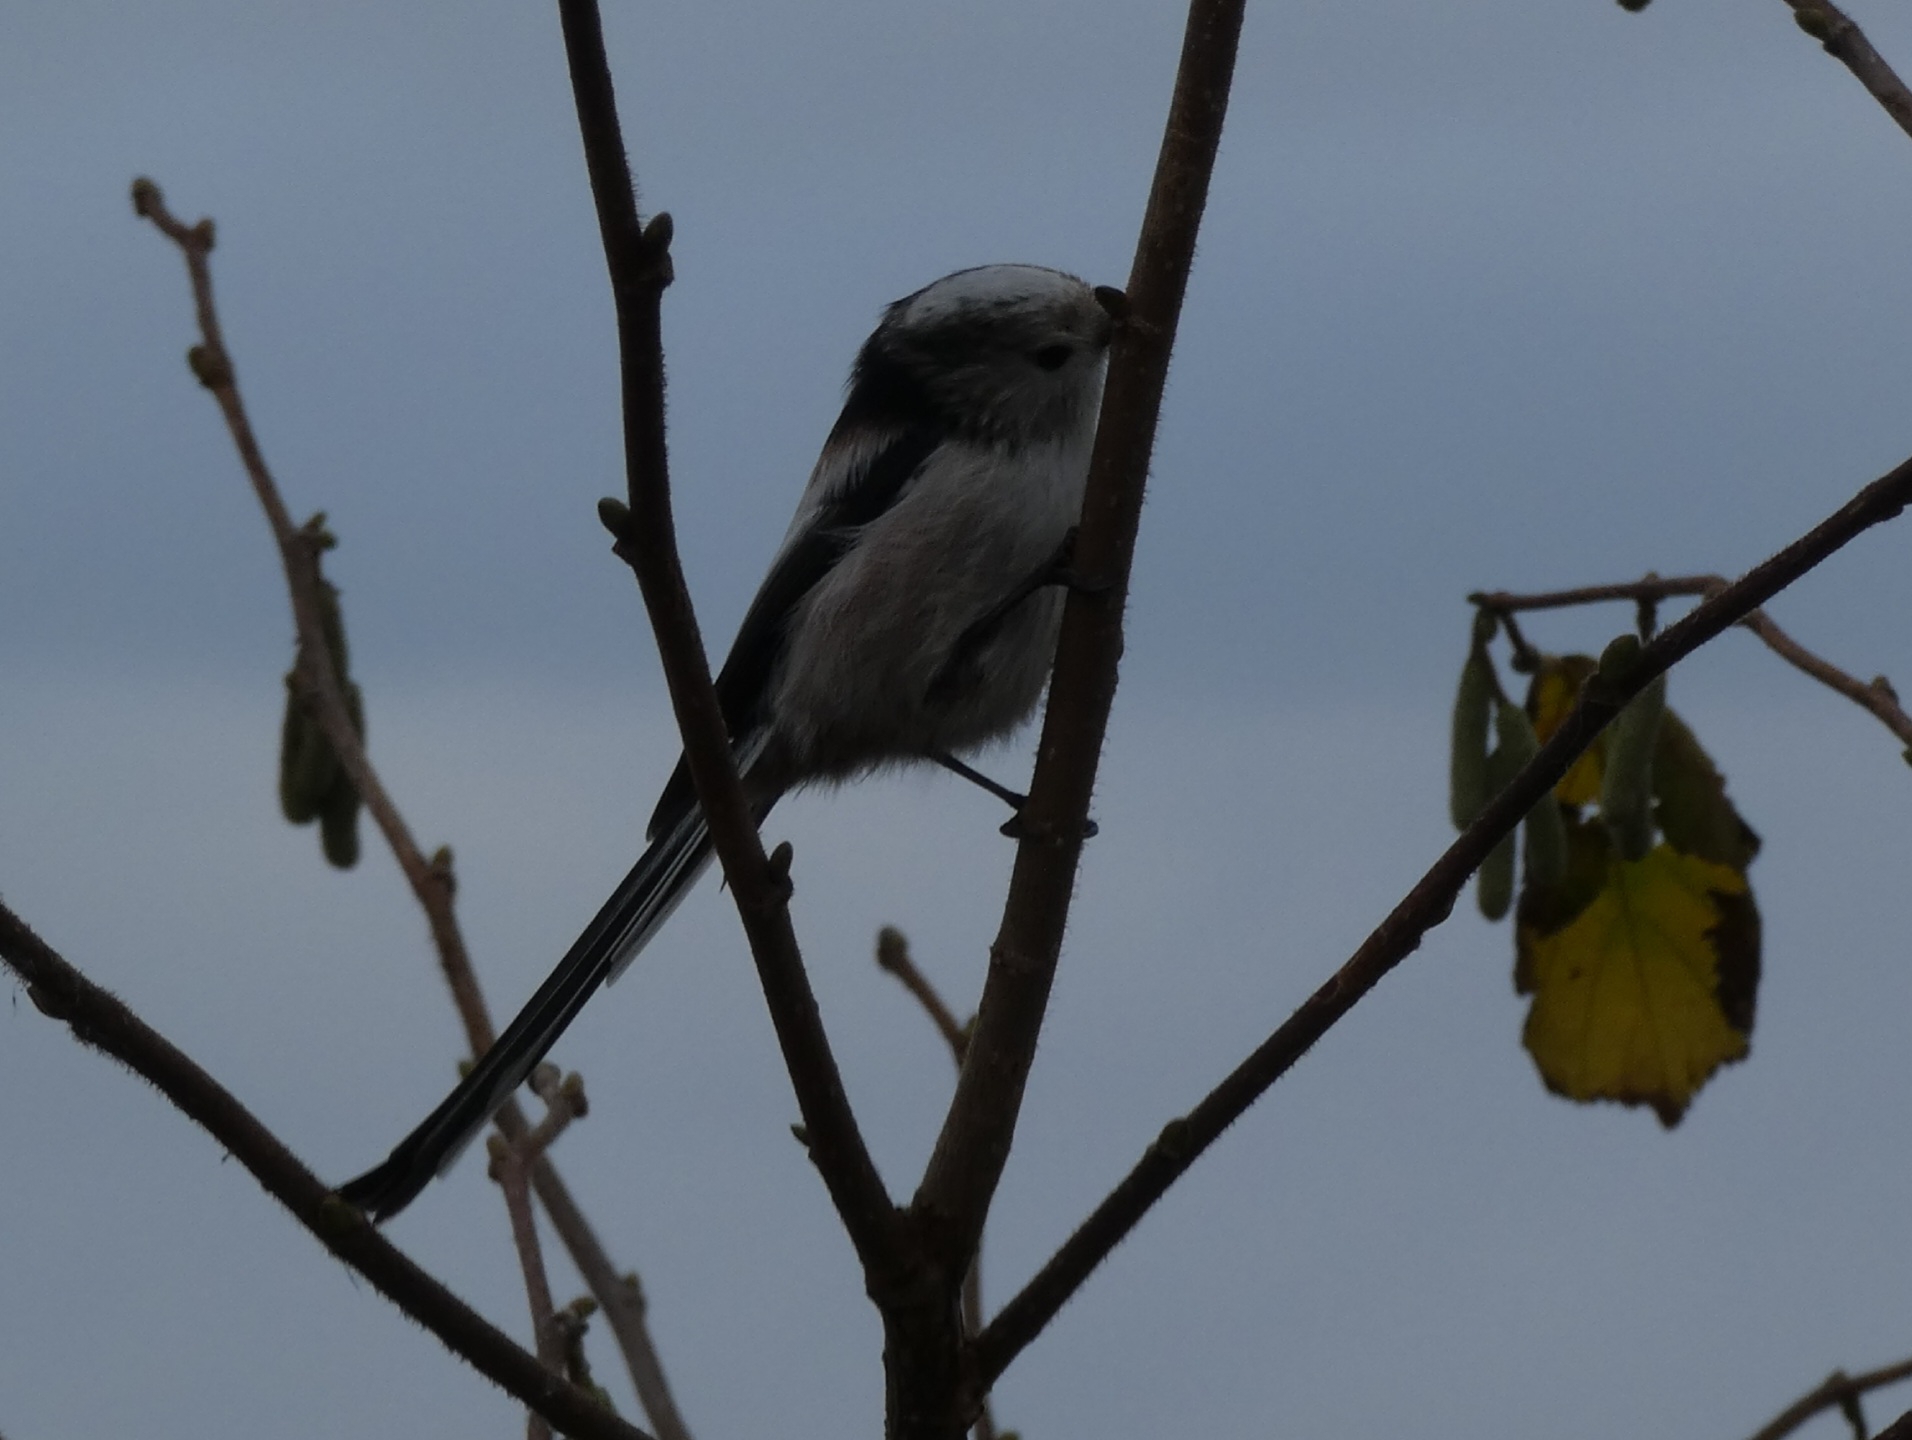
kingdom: Animalia
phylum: Chordata
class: Aves
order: Passeriformes
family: Aegithalidae
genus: Aegithalos
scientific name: Aegithalos caudatus
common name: Sydlig halemejse
